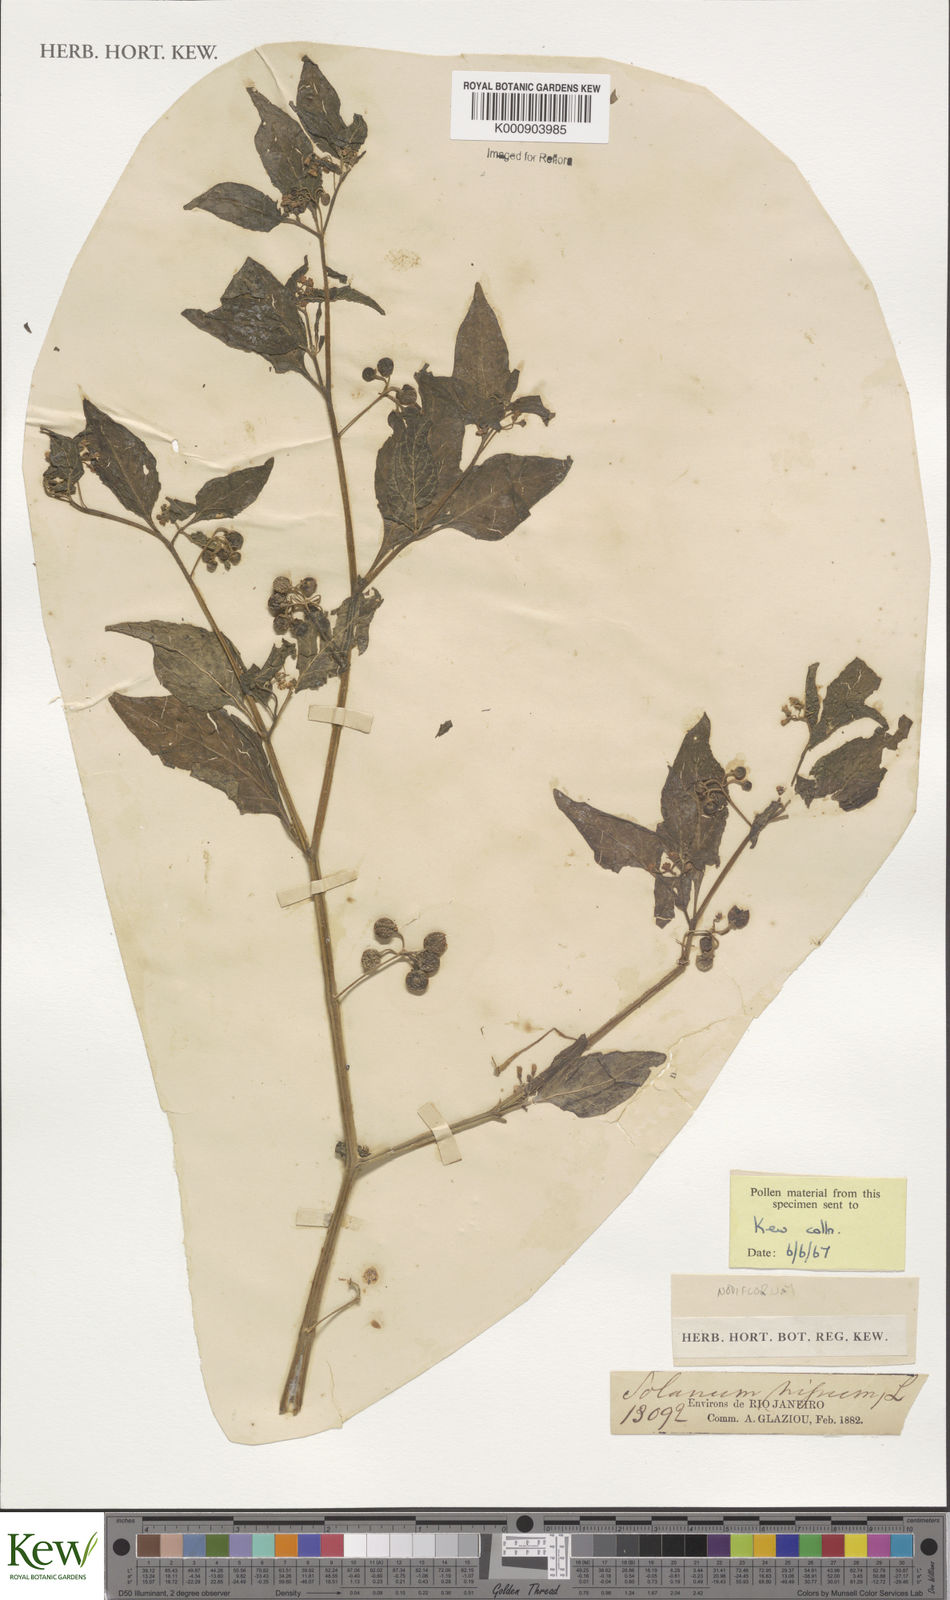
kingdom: Plantae
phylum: Tracheophyta
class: Magnoliopsida
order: Solanales
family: Solanaceae
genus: Solanum
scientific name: Solanum americanum
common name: American black nightshade
